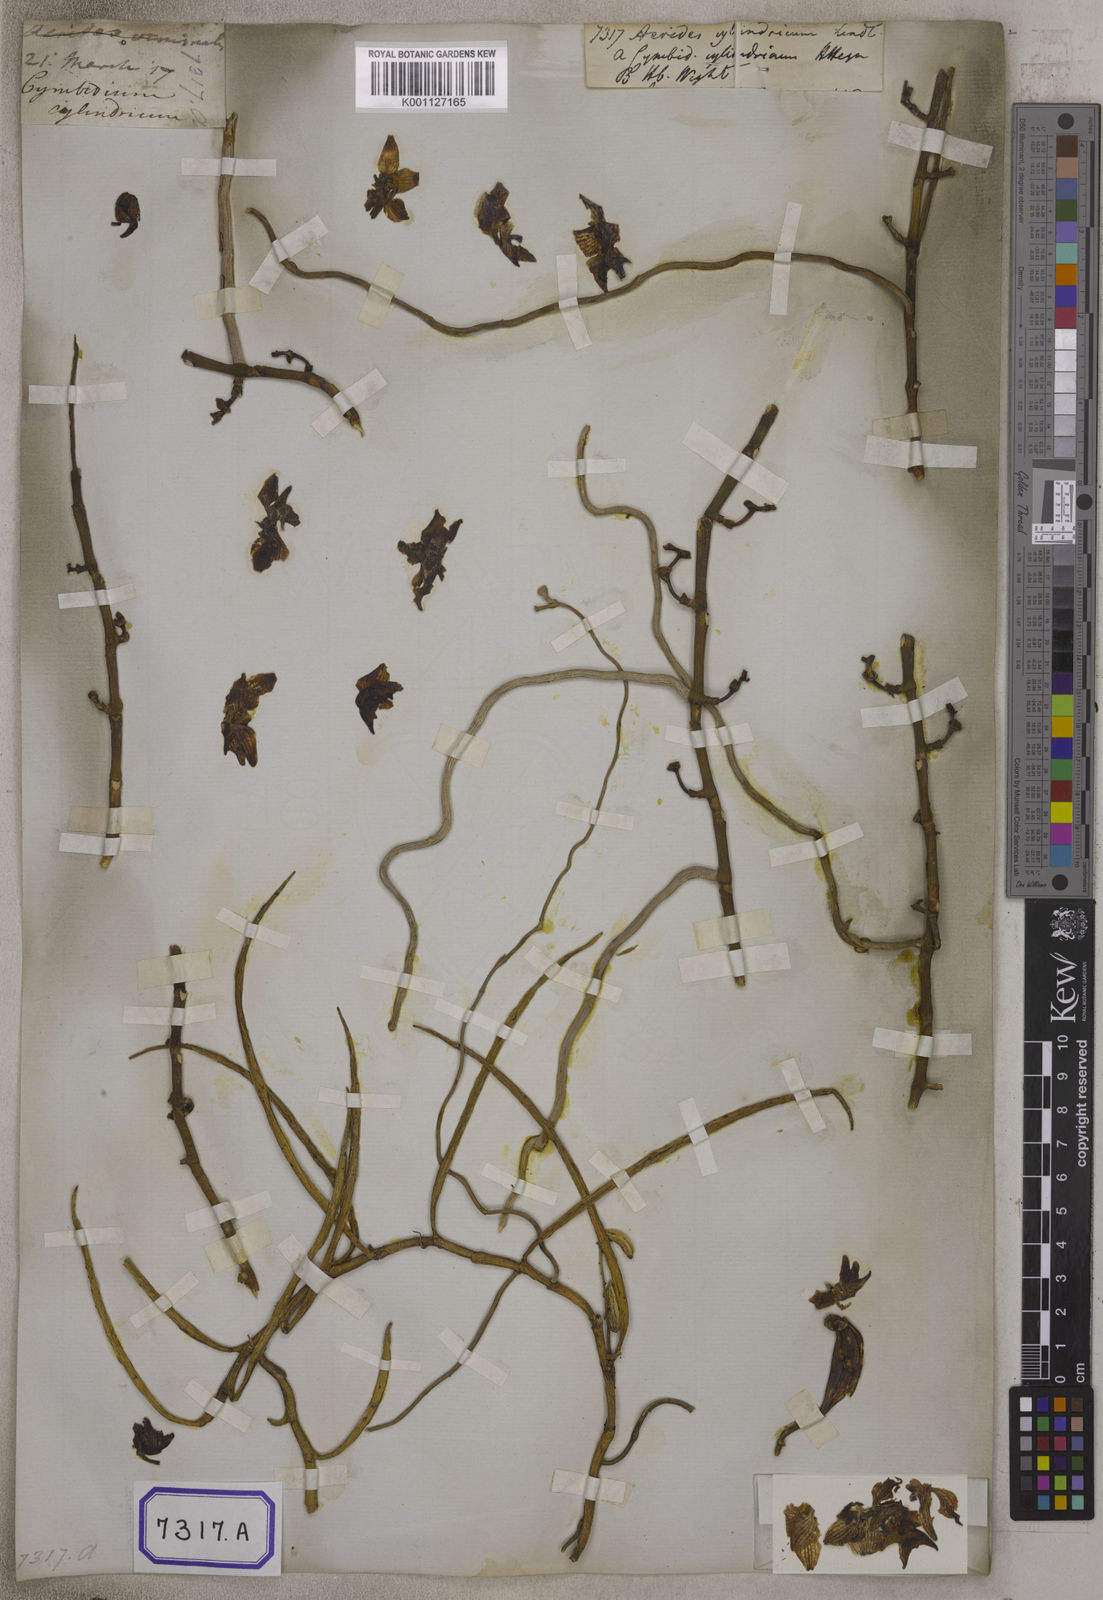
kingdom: Plantae
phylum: Tracheophyta
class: Liliopsida
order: Asparagales
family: Orchidaceae
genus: Papilionanthe
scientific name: Papilionanthe cylindrica
